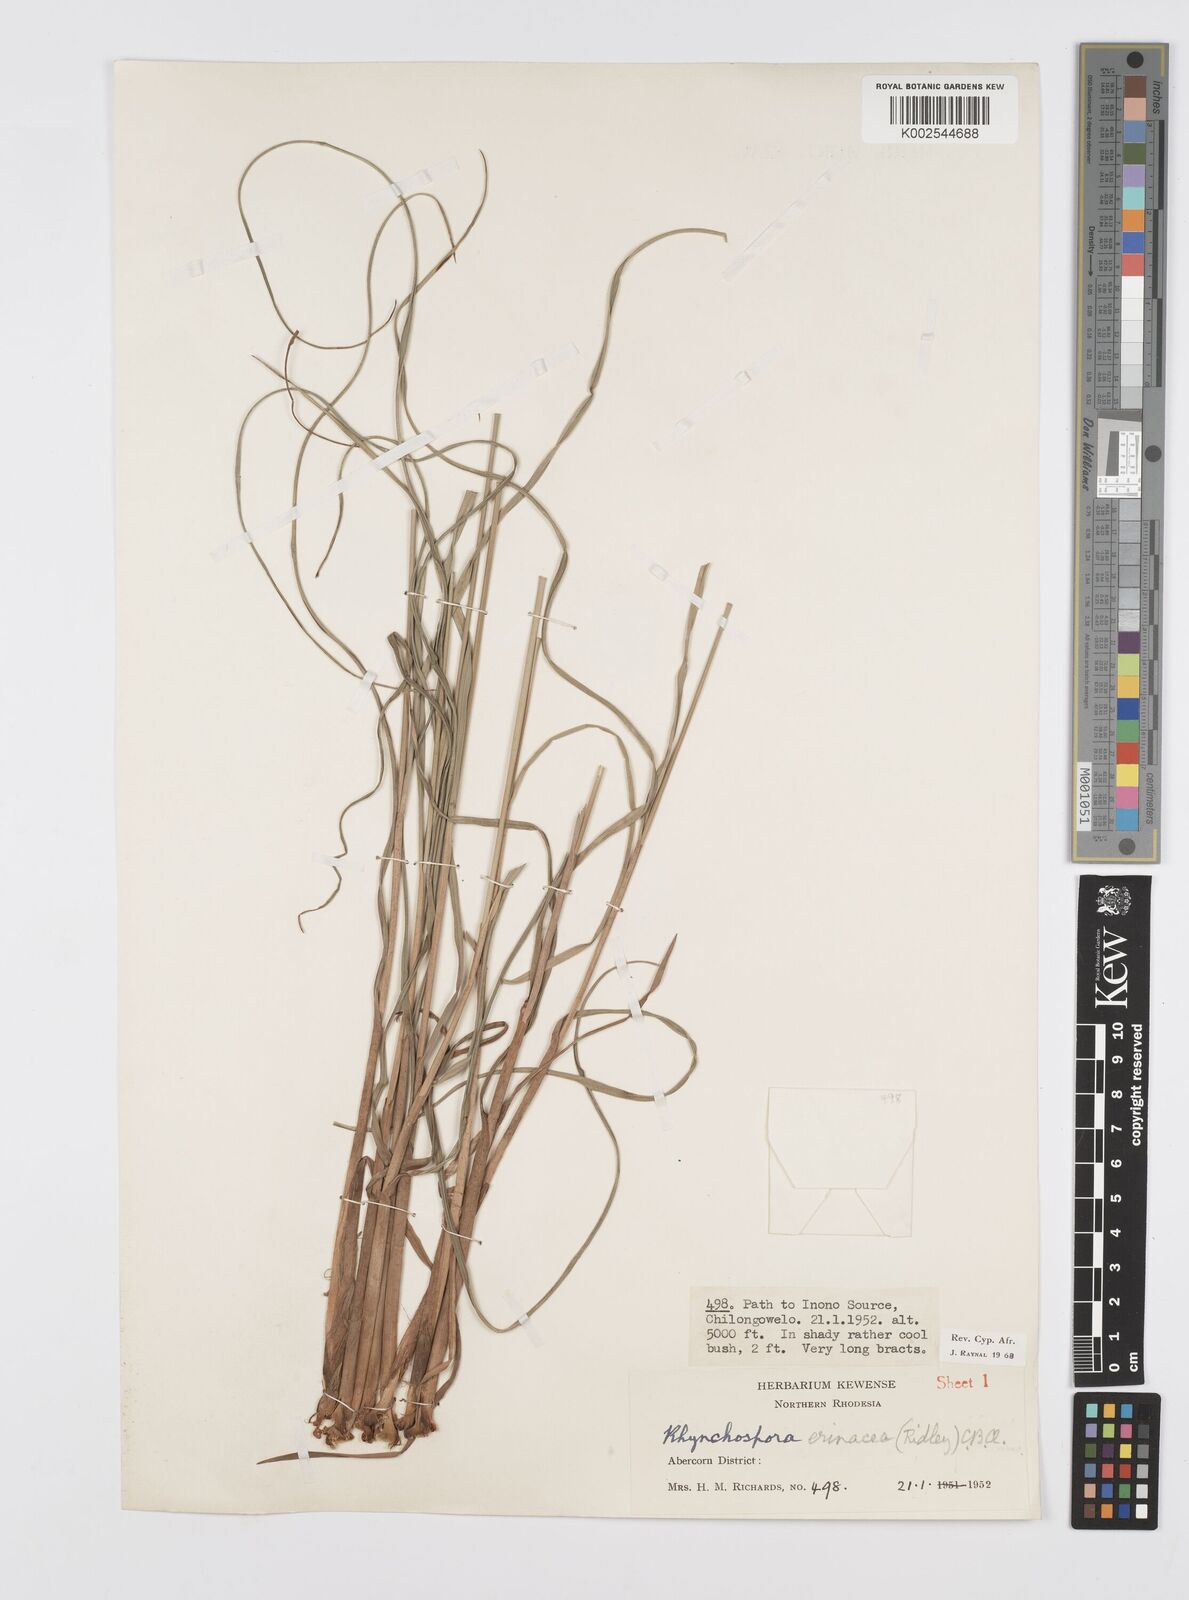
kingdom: Plantae
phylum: Tracheophyta
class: Liliopsida
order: Poales
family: Cyperaceae
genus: Cyperus
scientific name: Cyperus erinaceus
